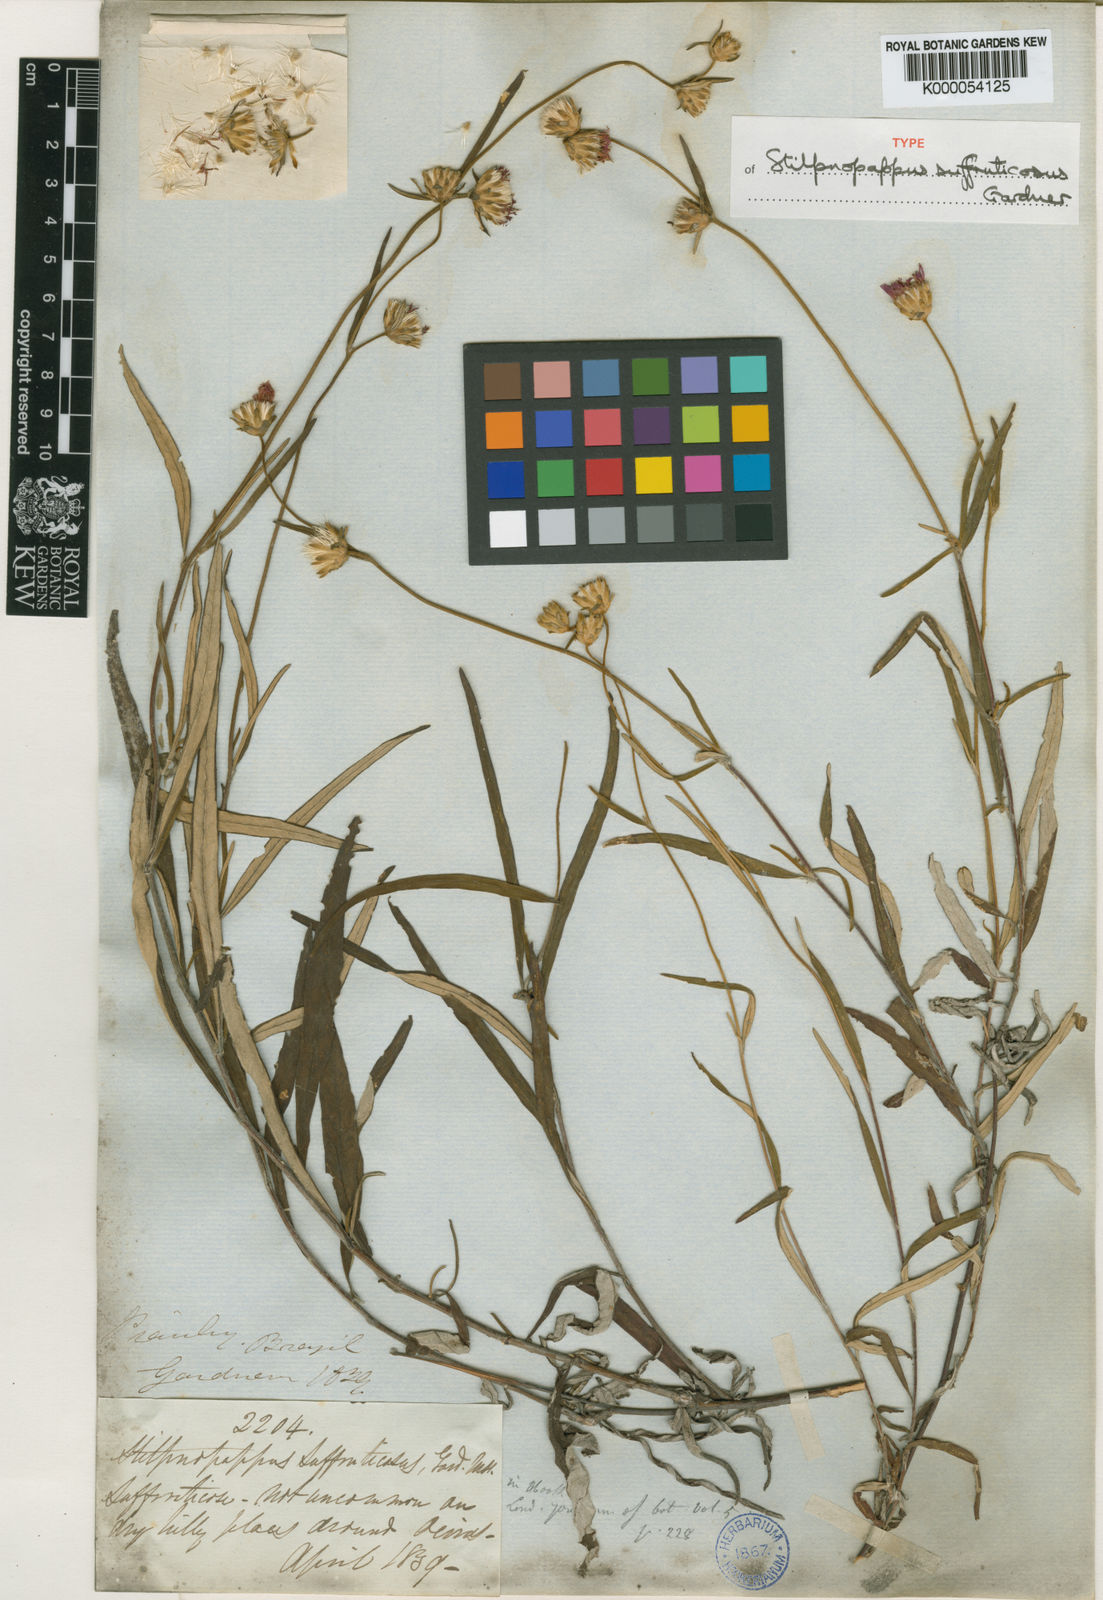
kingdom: Plantae
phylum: Tracheophyta
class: Magnoliopsida
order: Asterales
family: Asteraceae
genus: Stilpnopappus
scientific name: Stilpnopappus suffruticosus
